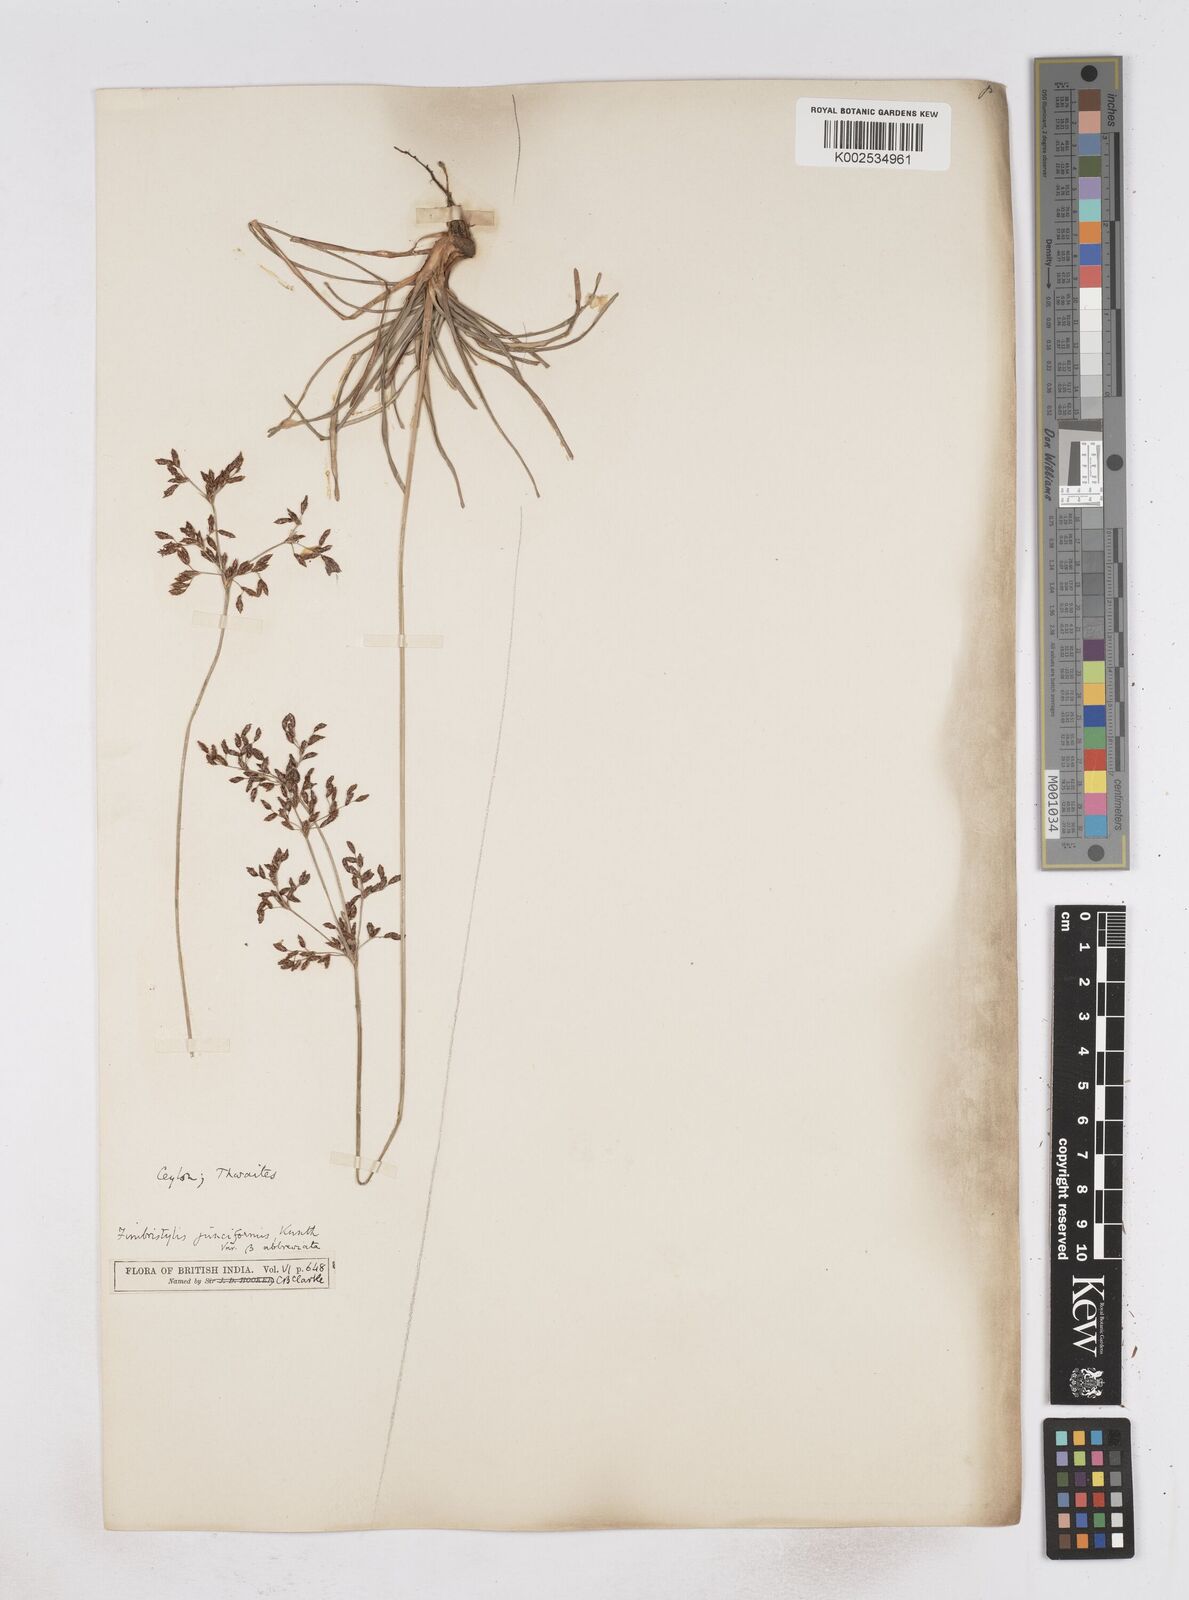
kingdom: Plantae
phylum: Tracheophyta
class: Liliopsida
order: Poales
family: Cyperaceae
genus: Fimbristylis
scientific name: Fimbristylis falcata
